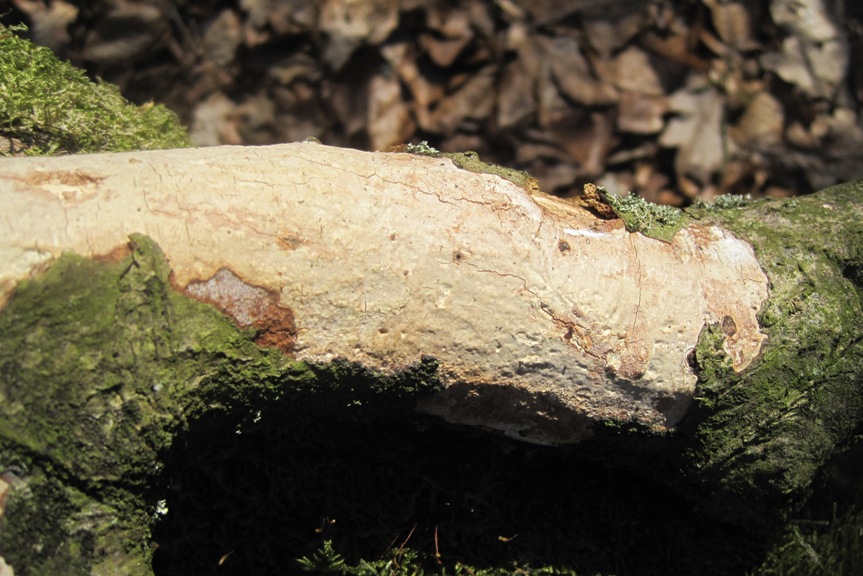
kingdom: Fungi
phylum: Basidiomycota
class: Agaricomycetes
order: Corticiales
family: Vuilleminiaceae
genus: Vuilleminia
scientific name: Vuilleminia comedens
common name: almindelig barksprænger
